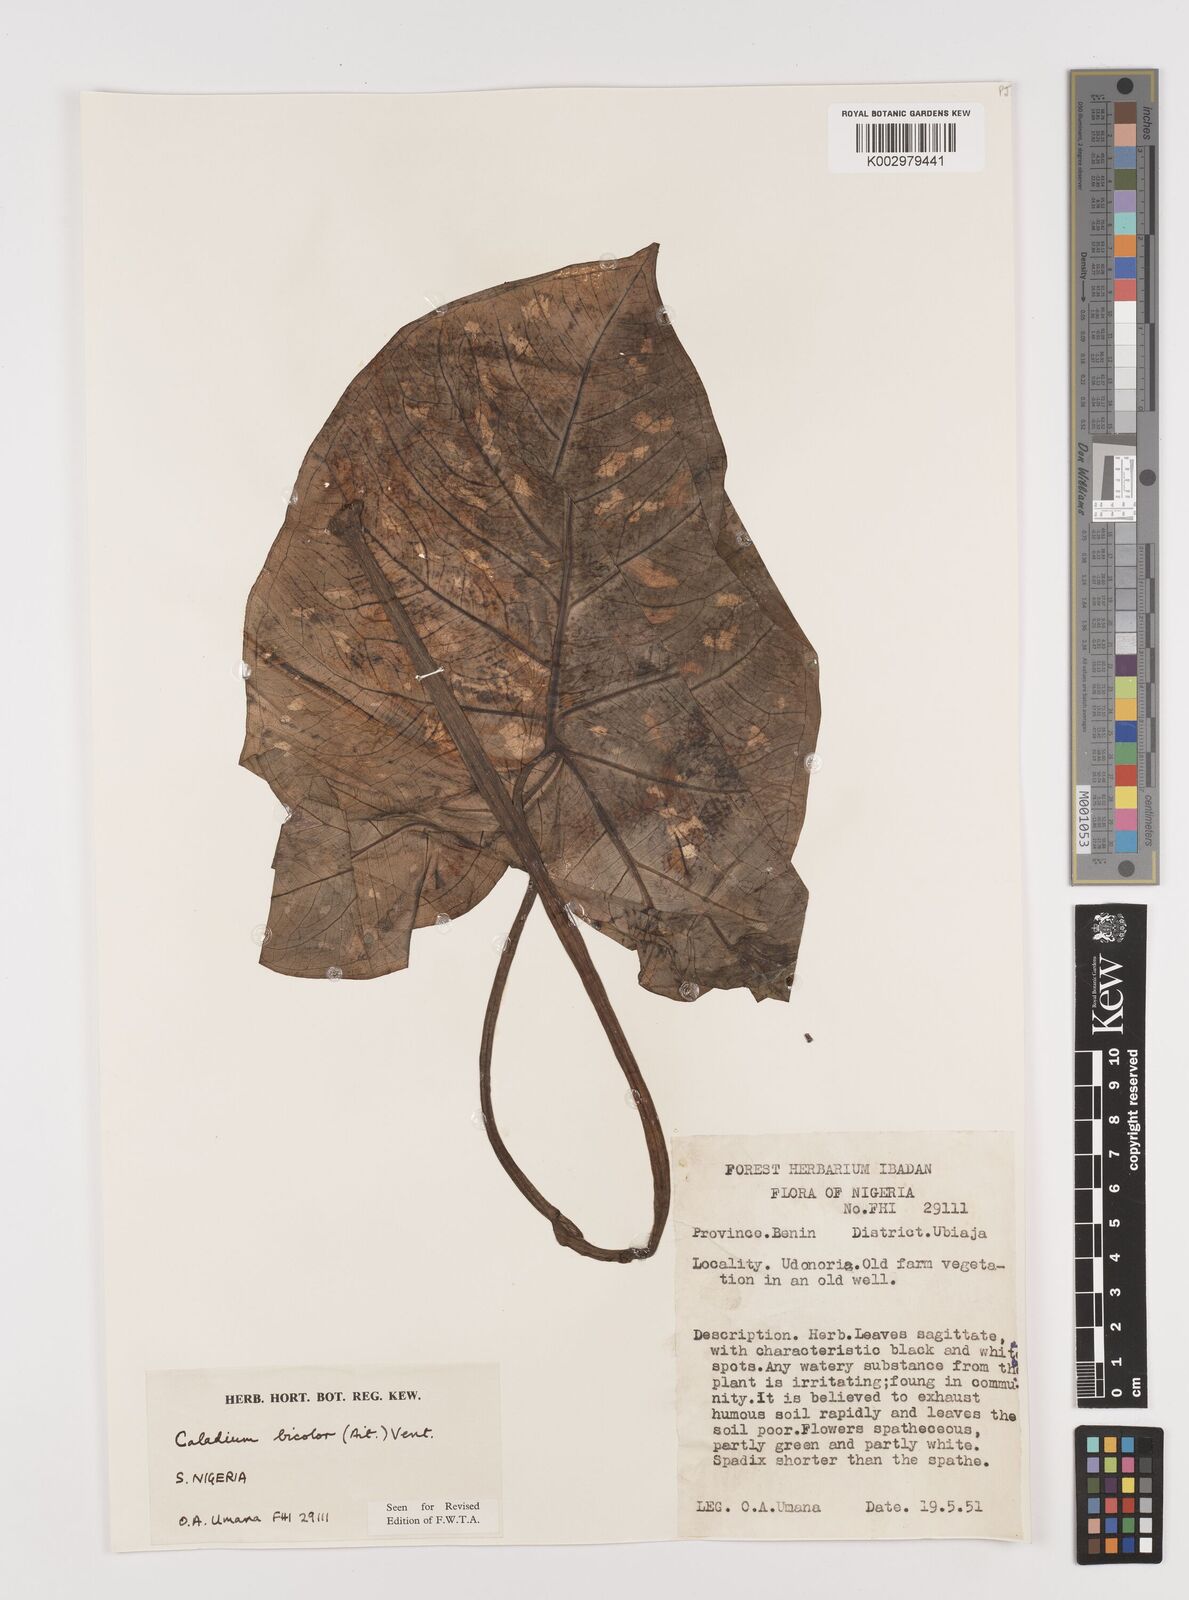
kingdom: Plantae
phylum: Tracheophyta
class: Liliopsida
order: Alismatales
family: Araceae
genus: Caladium
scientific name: Caladium bicolor
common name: Artist's pallet
